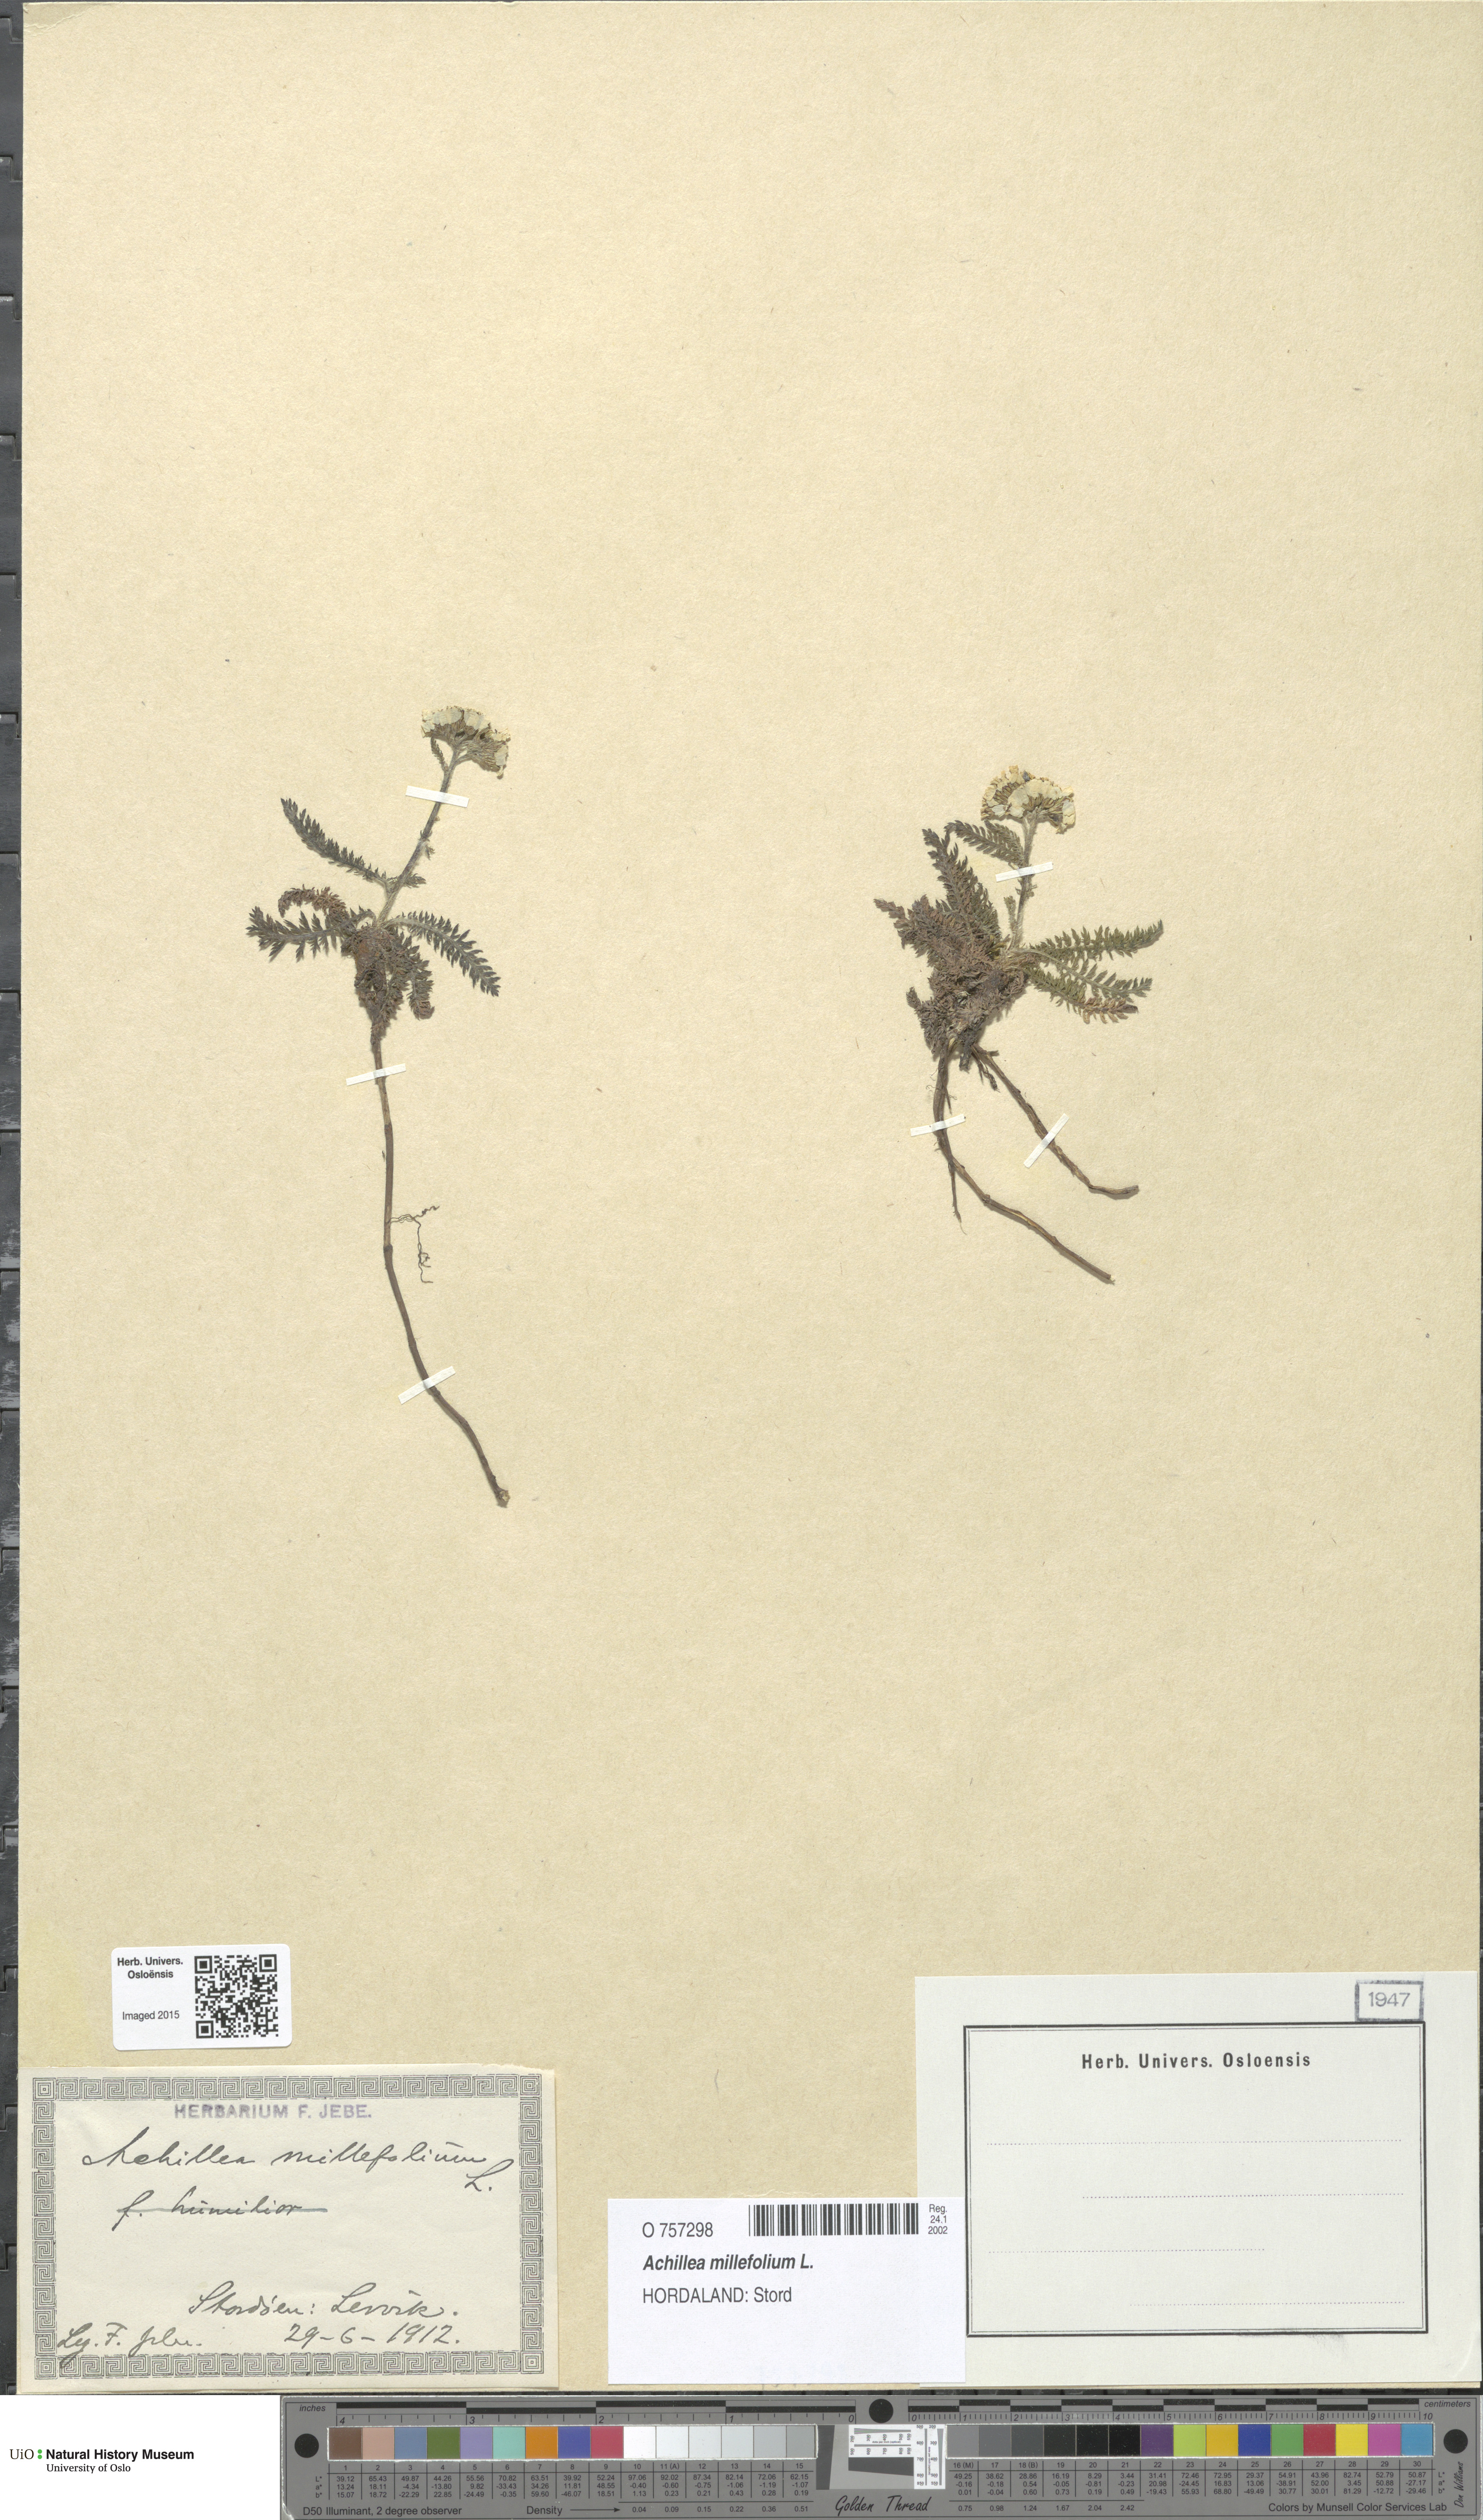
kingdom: Plantae
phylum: Tracheophyta
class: Magnoliopsida
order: Asterales
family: Asteraceae
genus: Achillea
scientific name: Achillea millefolium
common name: Yarrow
